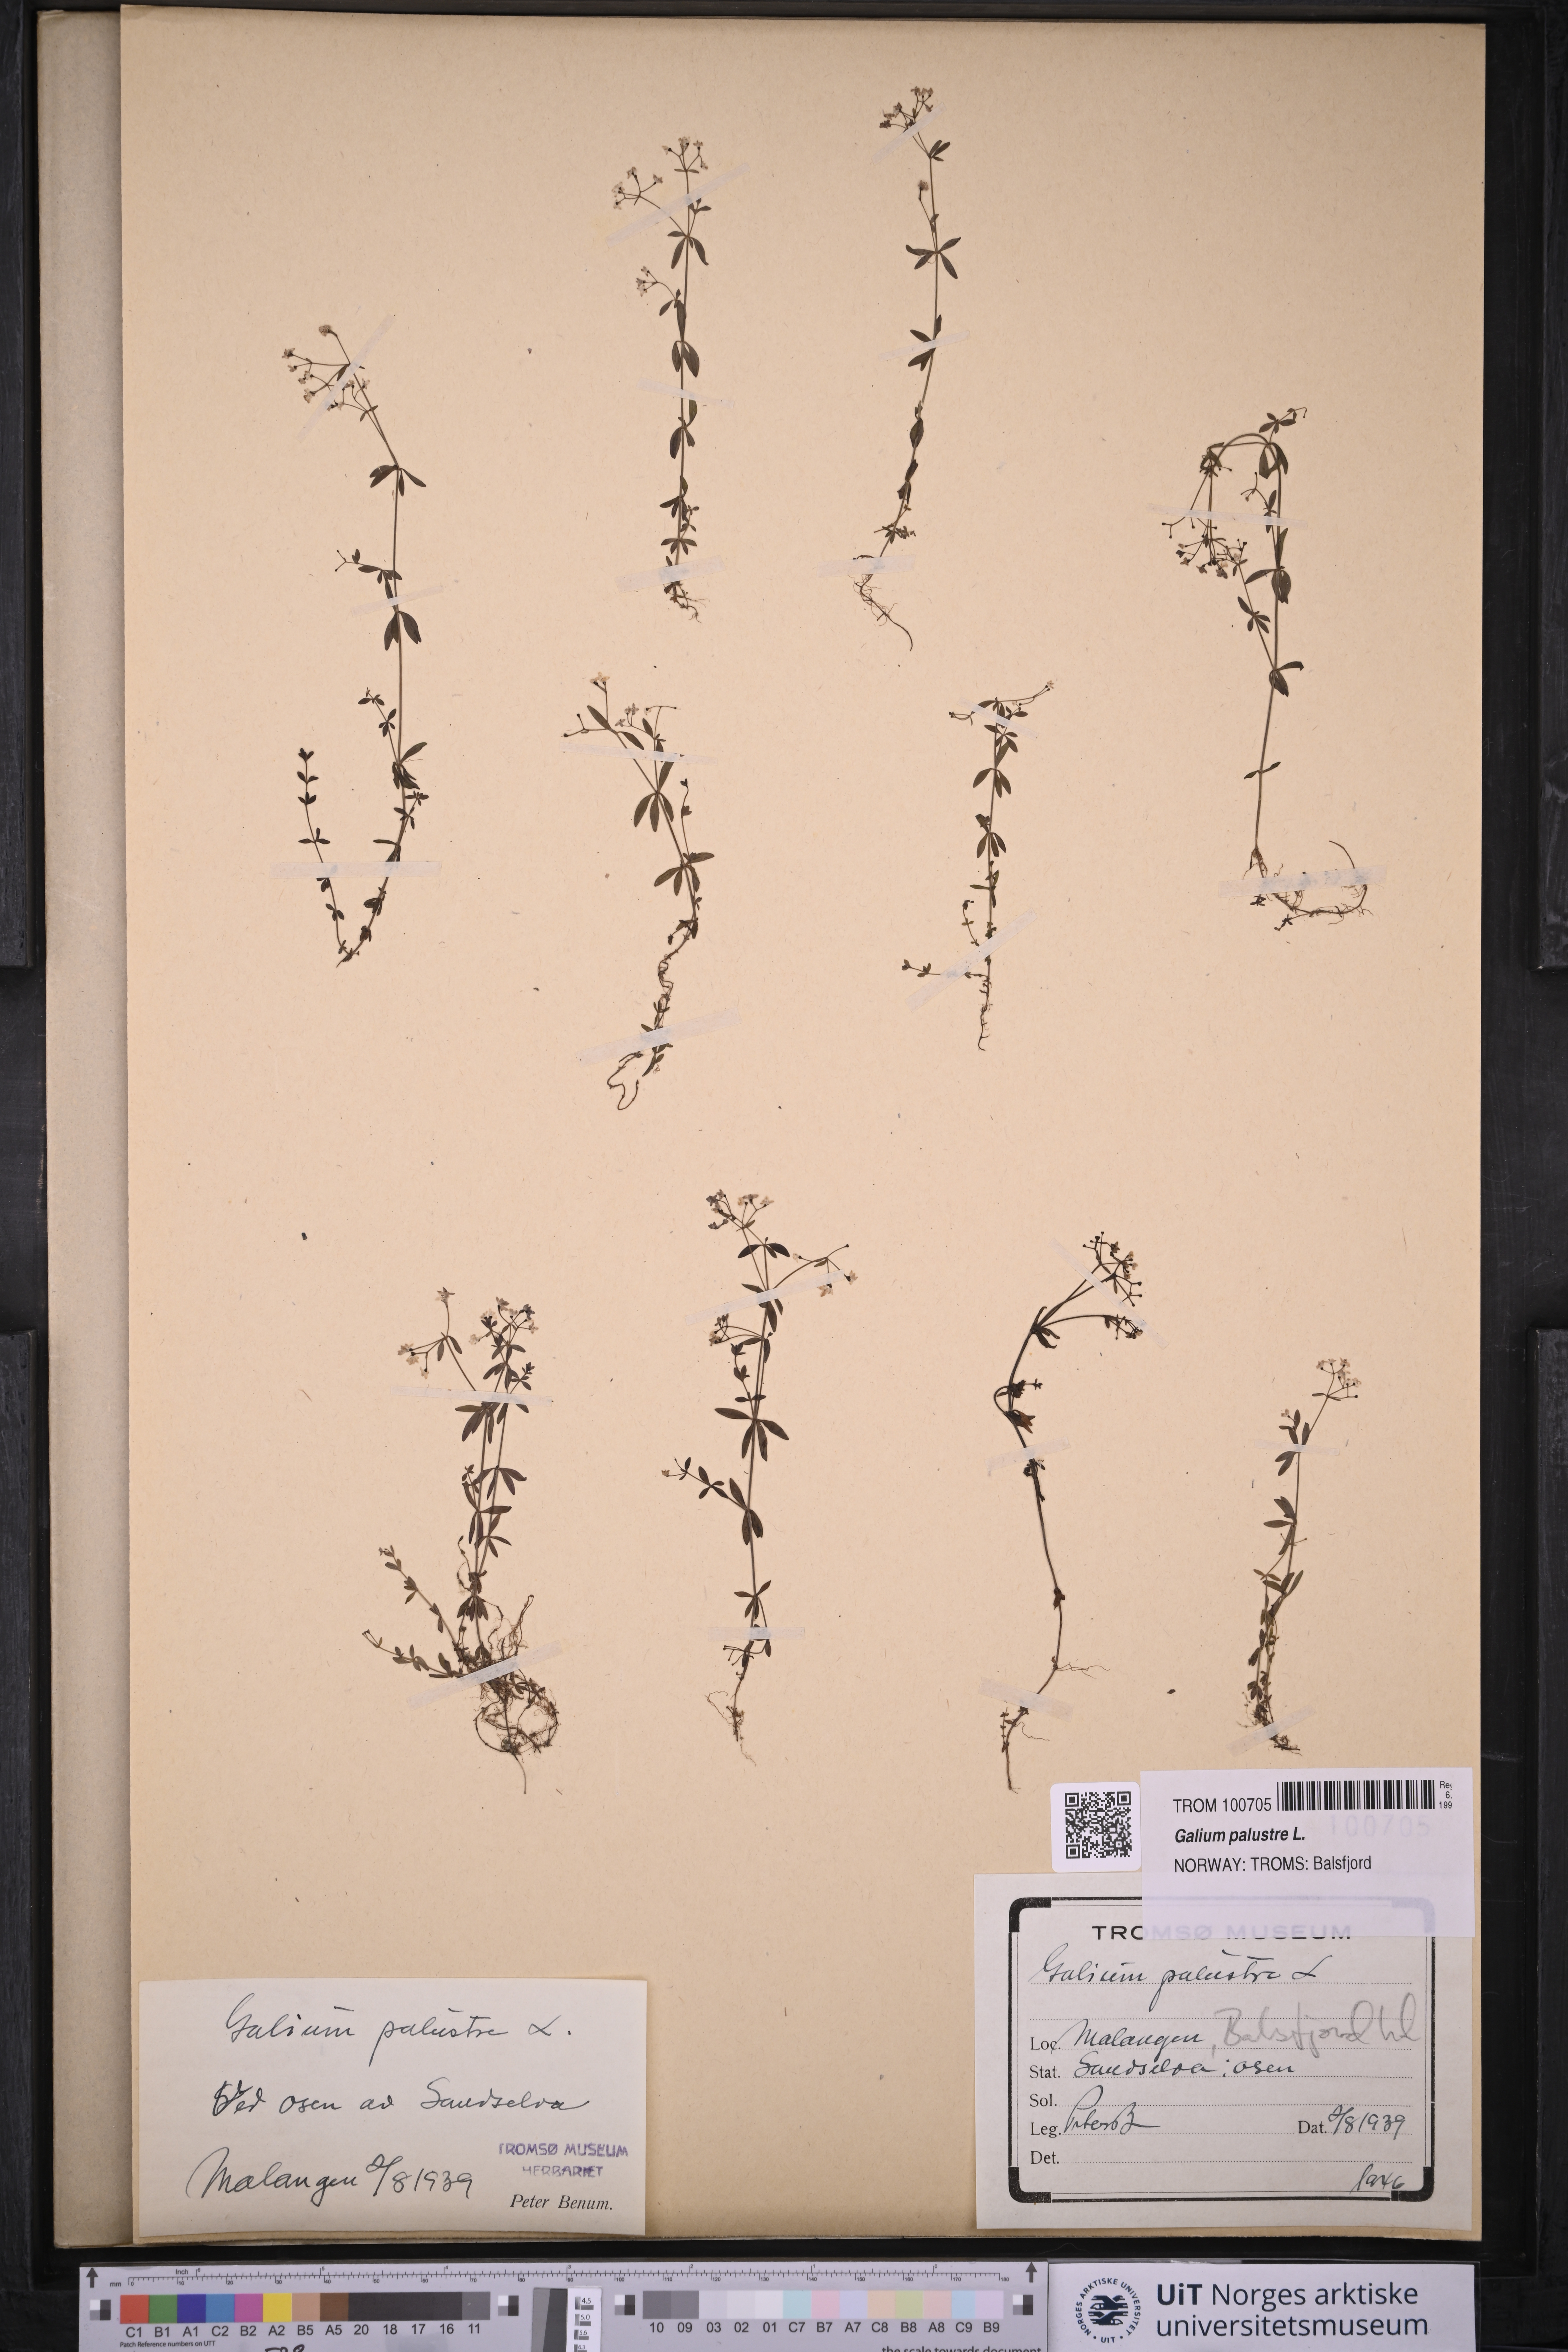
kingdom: Plantae
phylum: Tracheophyta
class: Magnoliopsida
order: Gentianales
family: Rubiaceae
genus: Galium
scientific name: Galium palustre
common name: Common marsh-bedstraw
